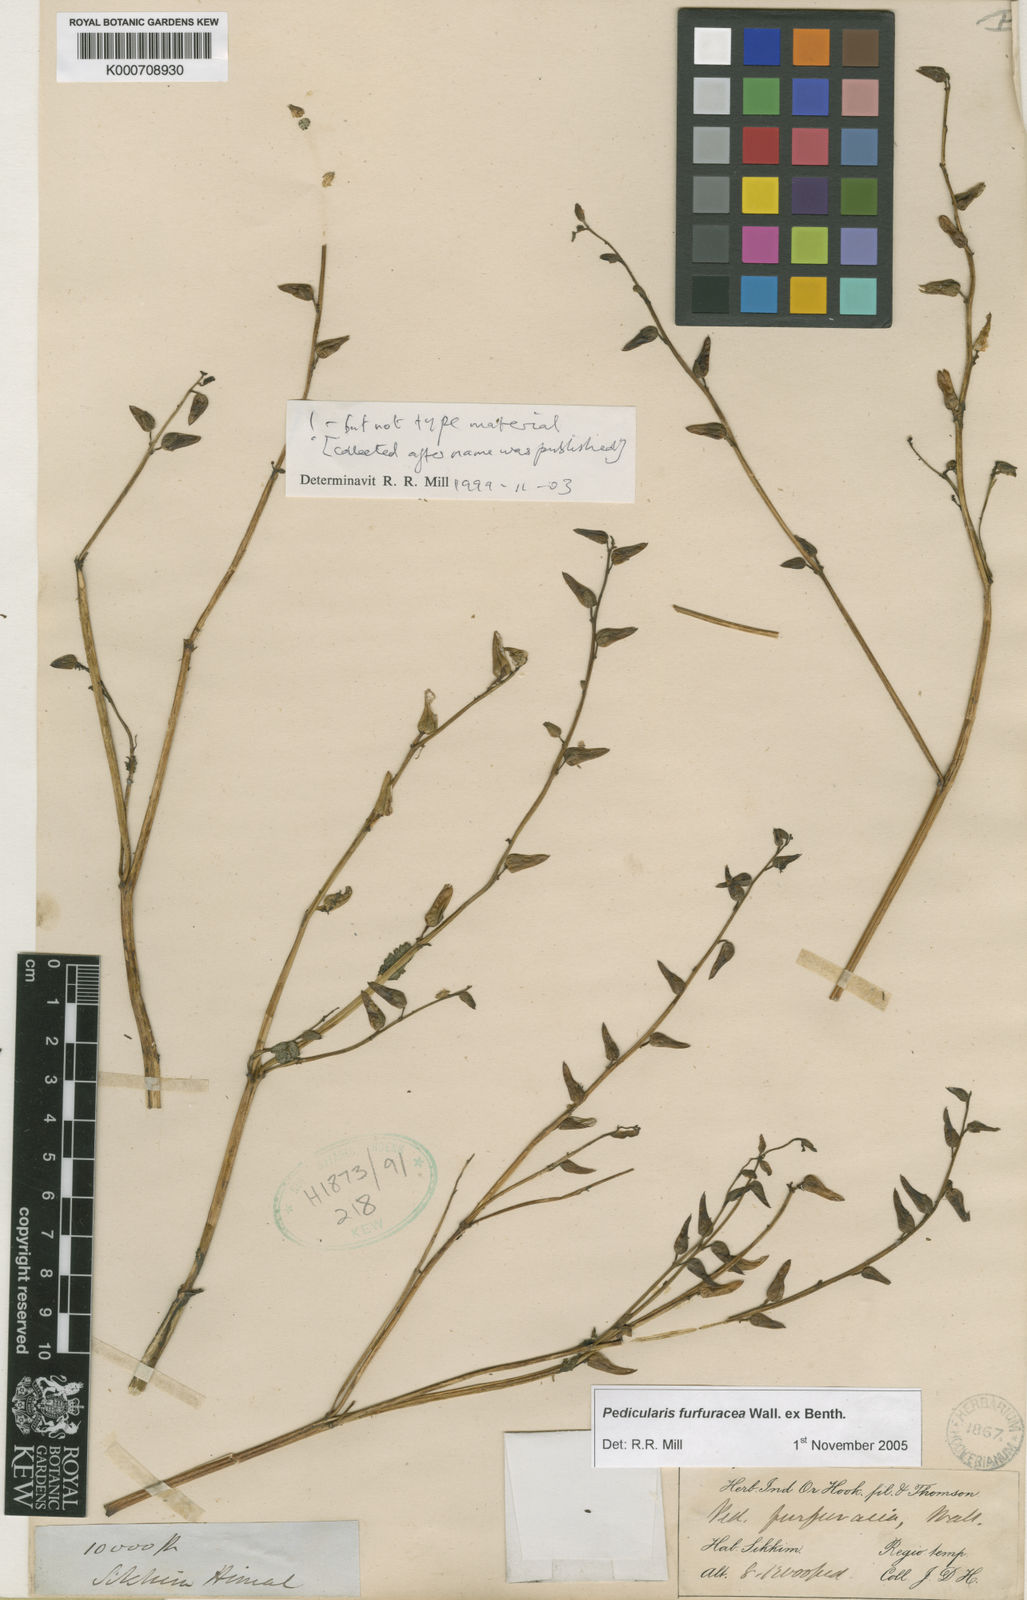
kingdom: Plantae
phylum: Tracheophyta
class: Magnoliopsida
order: Lamiales
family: Orobanchaceae
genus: Pedicularis
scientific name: Pedicularis
